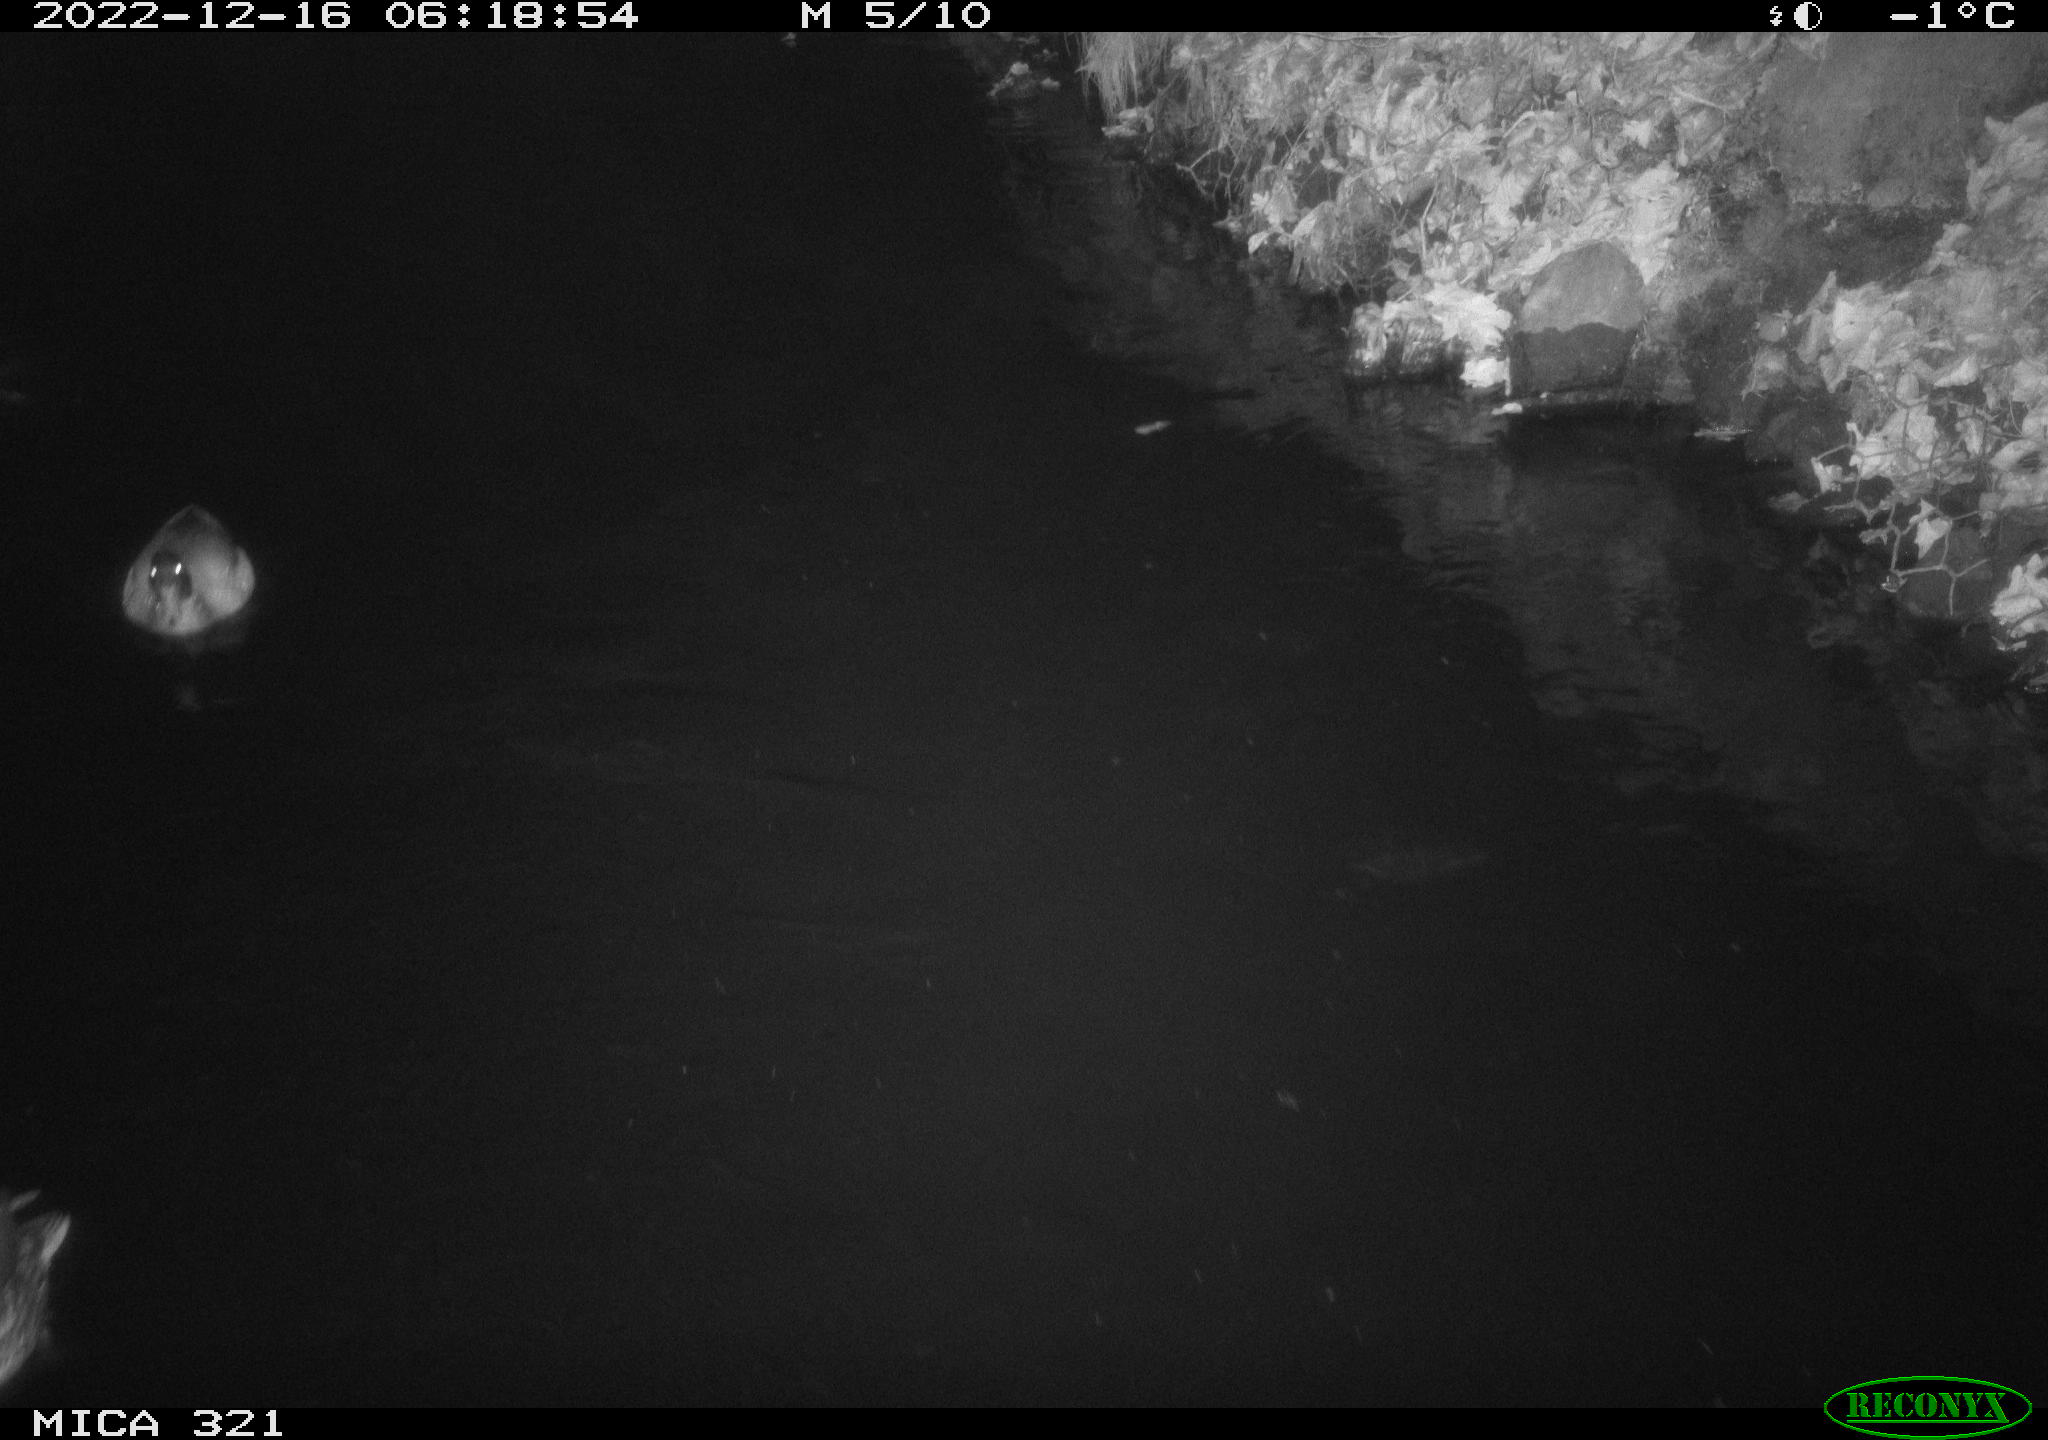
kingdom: Animalia
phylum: Chordata
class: Aves
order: Anseriformes
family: Anatidae
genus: Anas
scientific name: Anas
